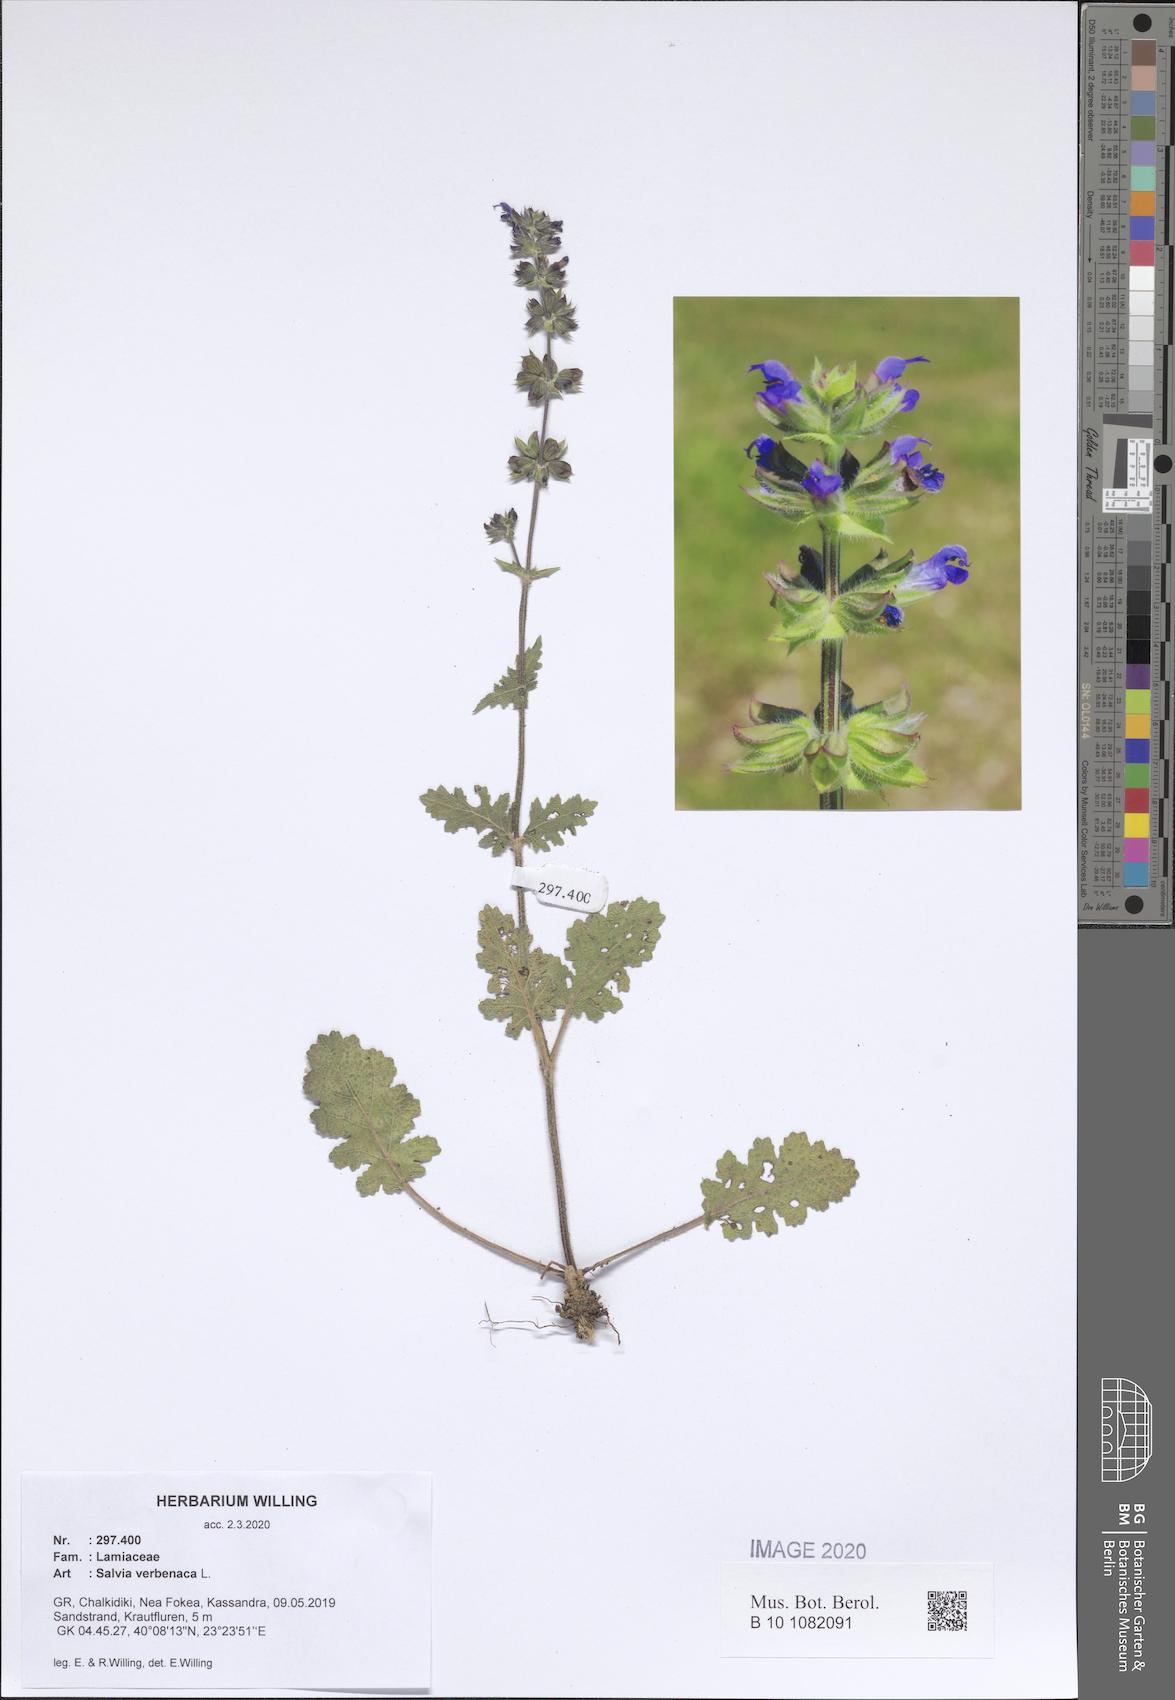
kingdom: Plantae
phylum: Tracheophyta
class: Magnoliopsida
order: Lamiales
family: Lamiaceae
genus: Salvia
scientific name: Salvia verbenaca
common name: Wild clary
